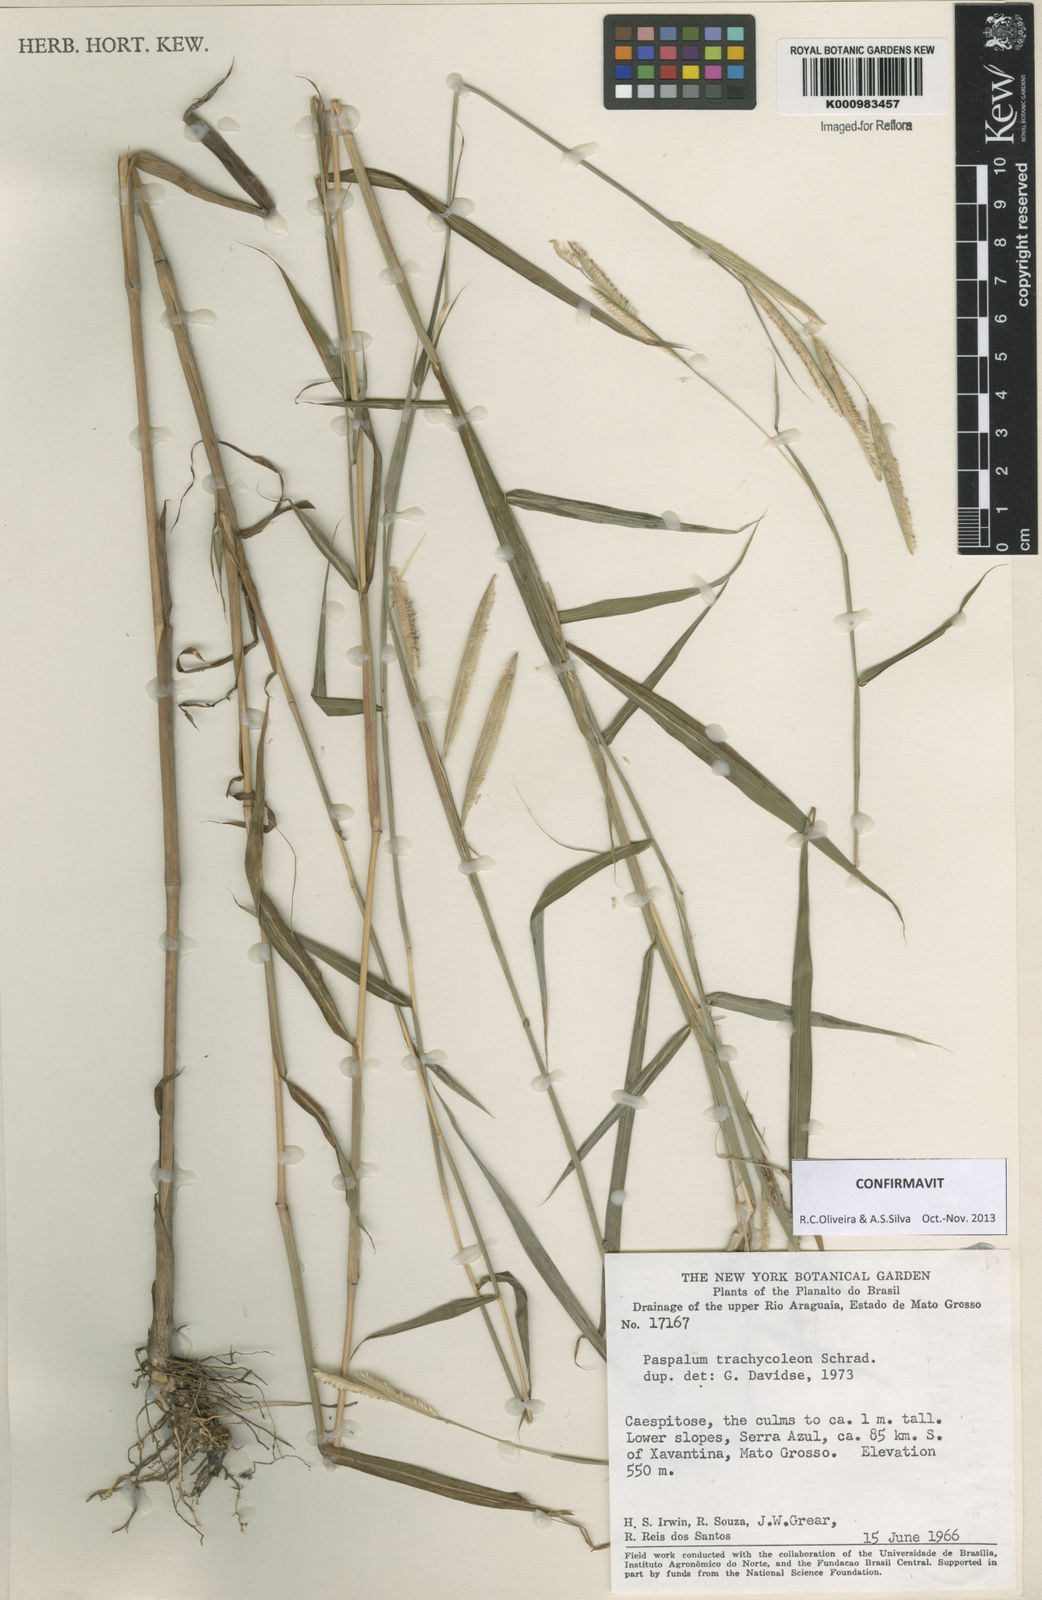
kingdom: Plantae
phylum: Tracheophyta
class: Liliopsida
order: Poales
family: Poaceae
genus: Paspalum
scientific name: Paspalum trachycoleon
